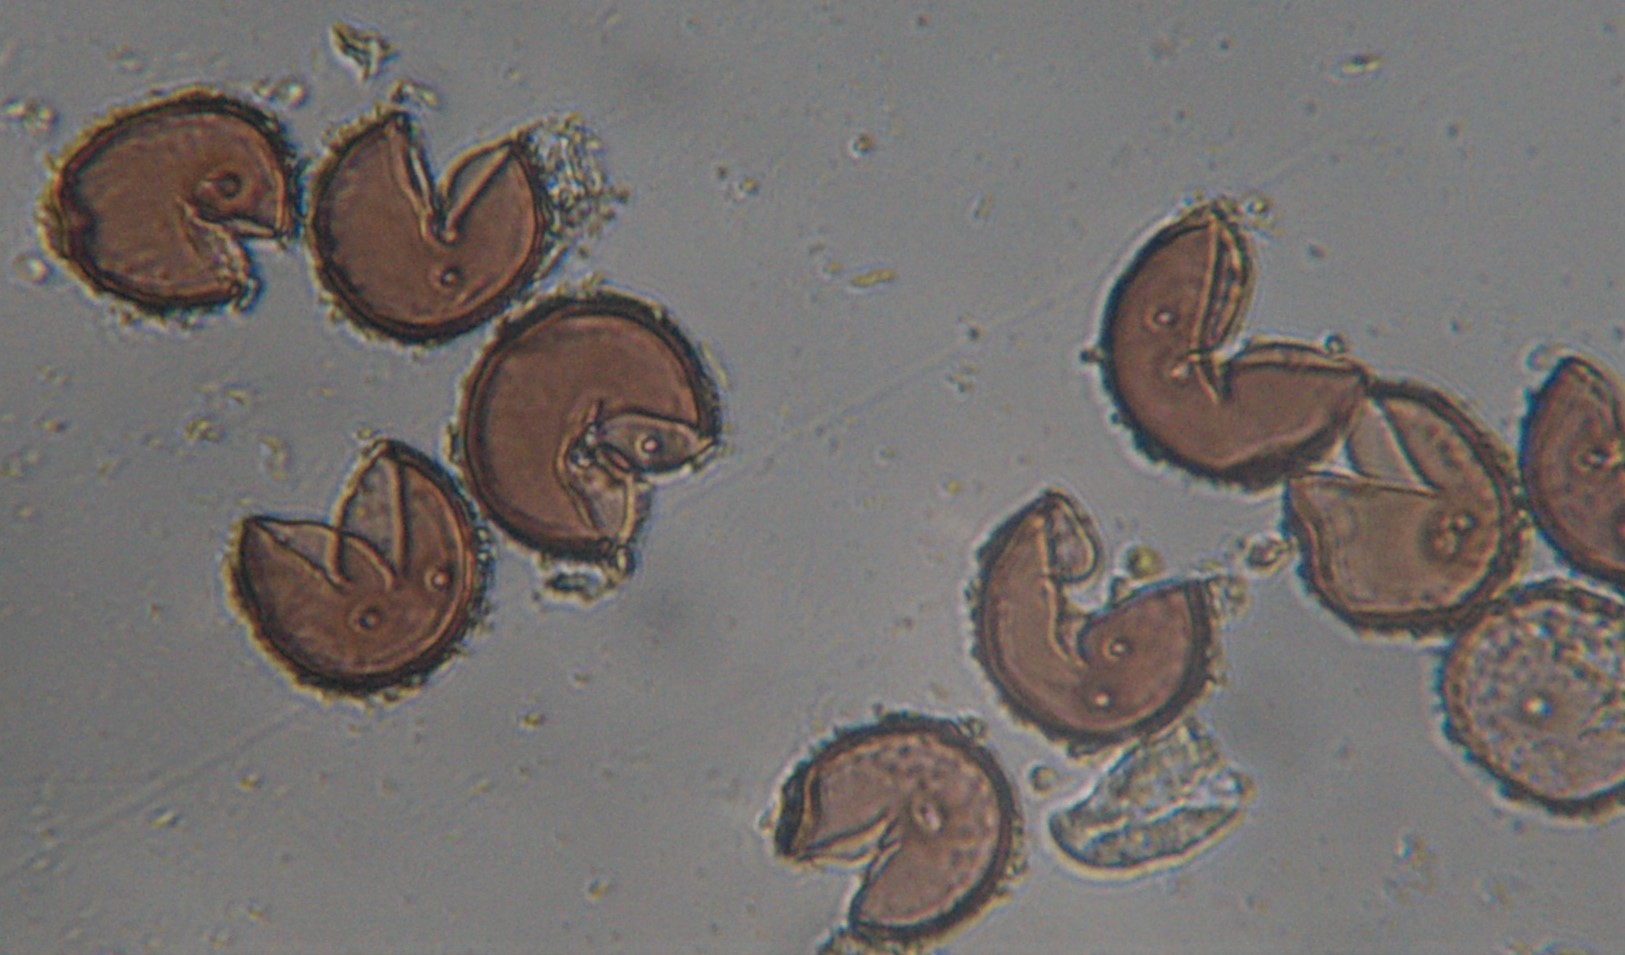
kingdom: Fungi
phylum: Basidiomycota
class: Pucciniomycetes
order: Pucciniales
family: Pucciniaceae
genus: Puccinia
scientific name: Puccinia hieracii
